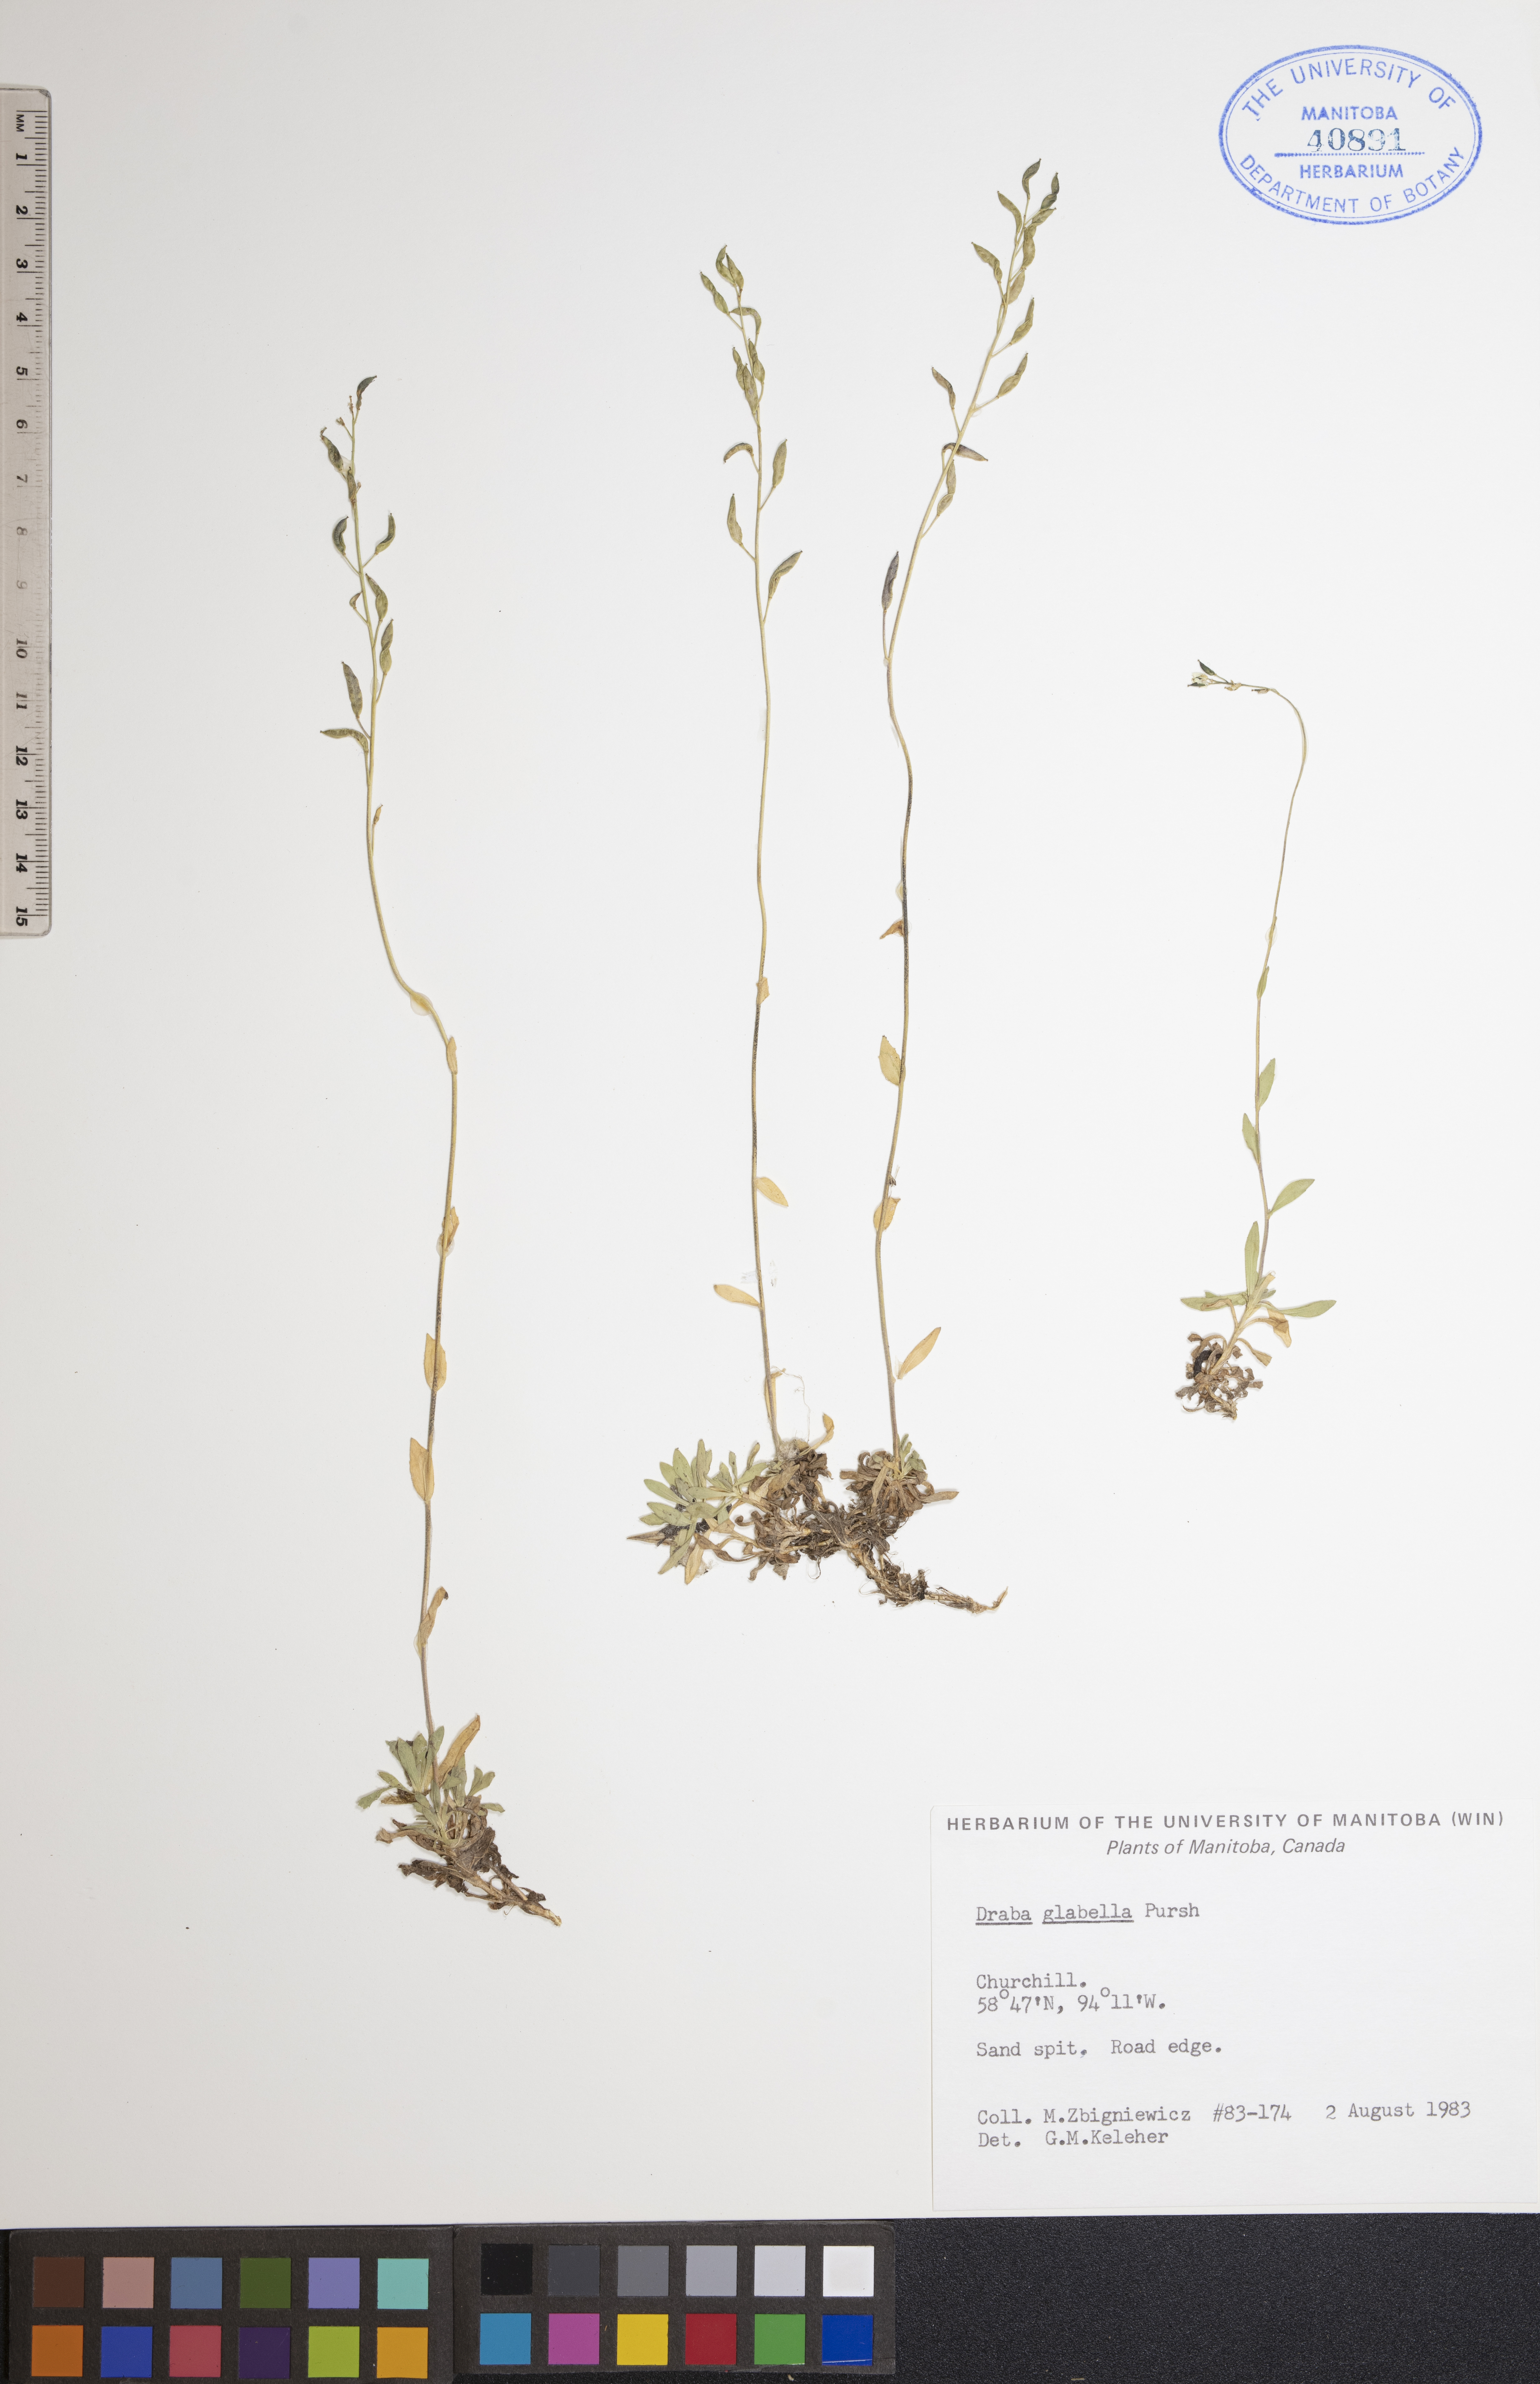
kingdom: Plantae
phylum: Tracheophyta
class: Magnoliopsida
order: Brassicales
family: Brassicaceae
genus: Draba
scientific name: Draba glabella
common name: Glaucous draba
